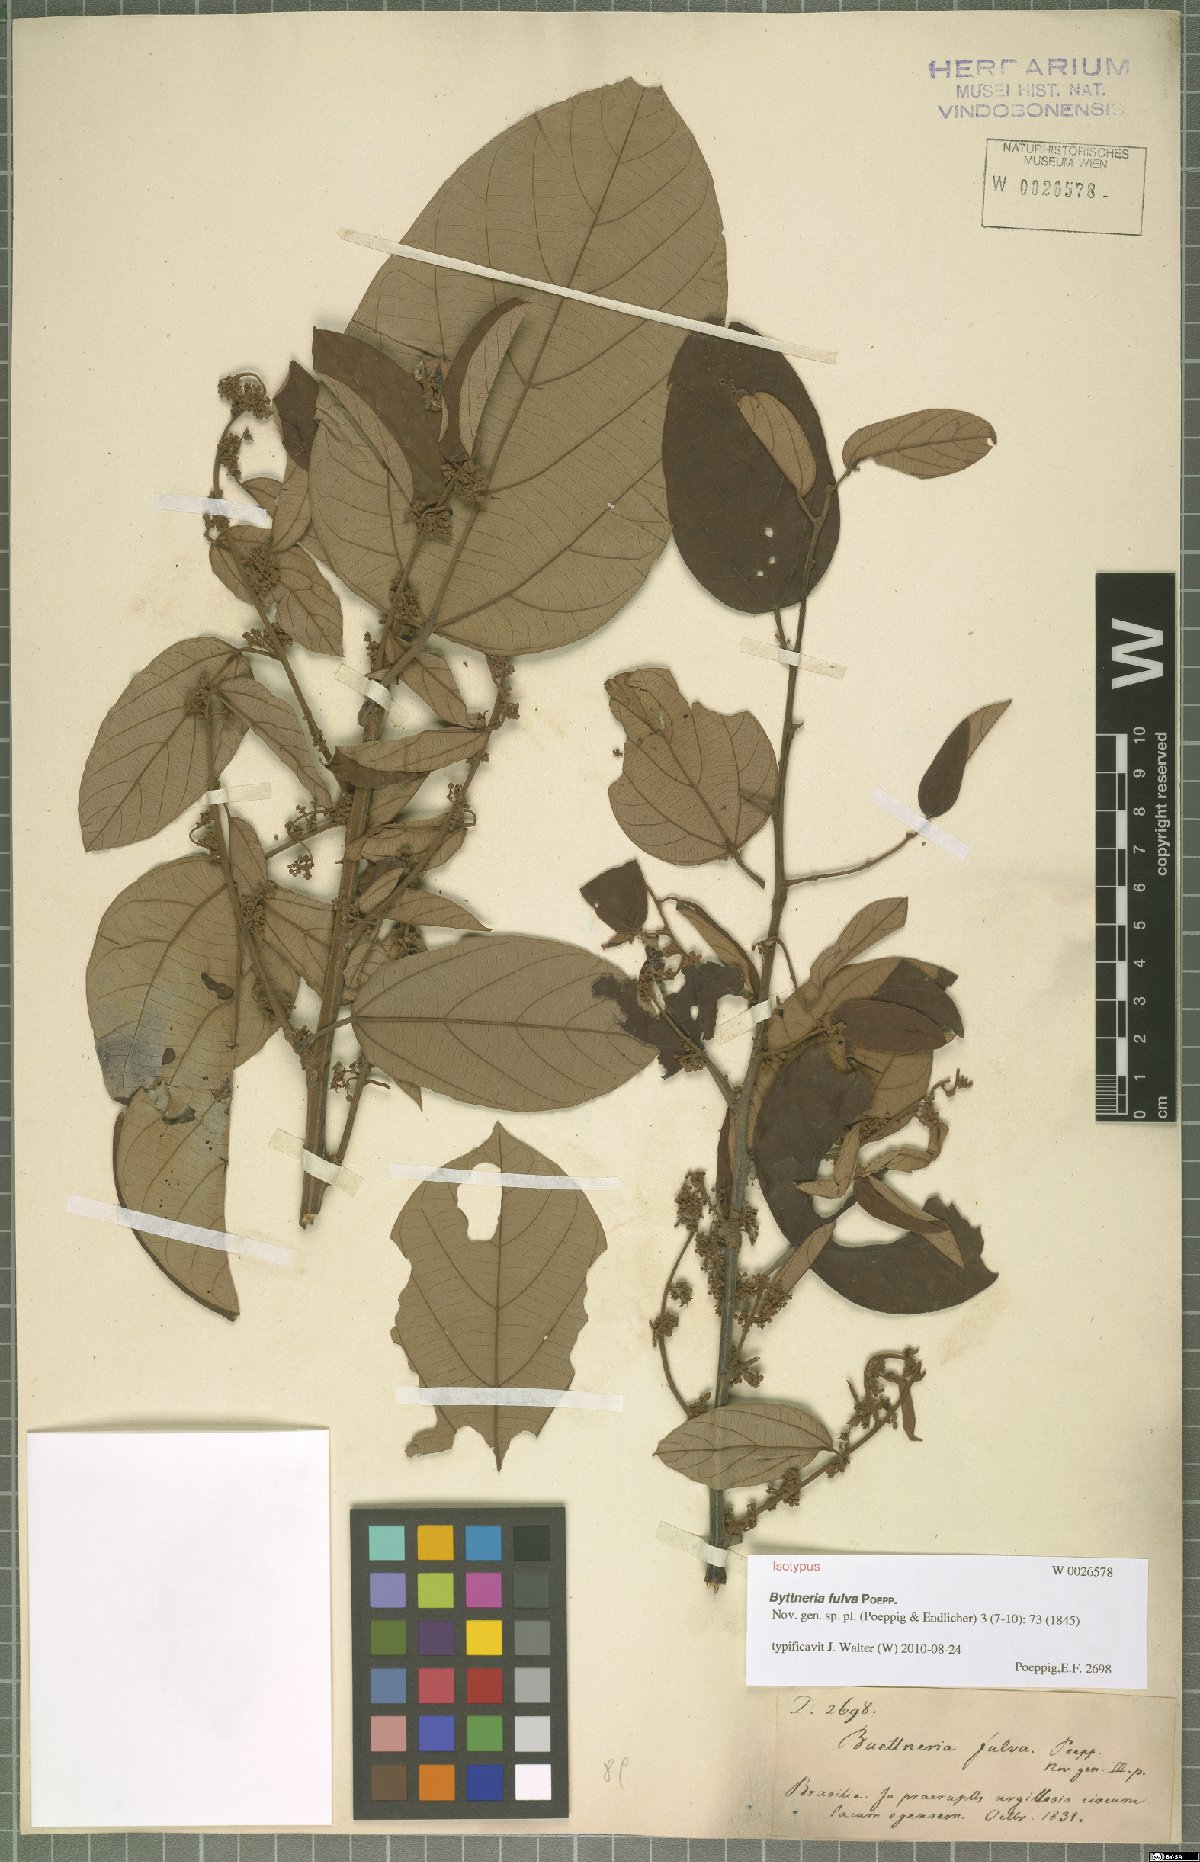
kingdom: Plantae
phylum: Tracheophyta
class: Magnoliopsida
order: Malvales
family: Malvaceae
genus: Byttneria
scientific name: Byttneria fulva
